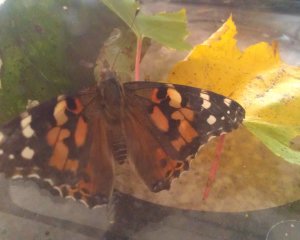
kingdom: Animalia
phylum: Arthropoda
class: Insecta
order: Lepidoptera
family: Nymphalidae
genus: Vanessa
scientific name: Vanessa cardui
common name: Painted Lady
